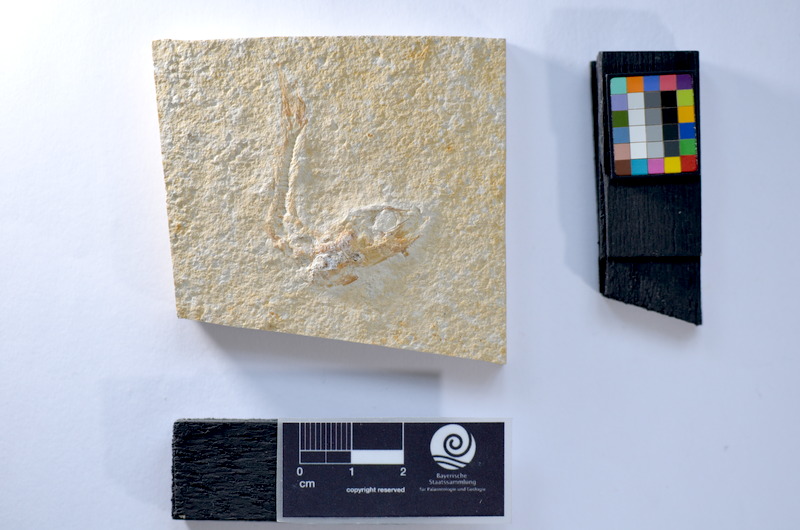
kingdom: Animalia
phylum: Chordata
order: Salmoniformes
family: Orthogonikleithridae
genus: Leptolepides
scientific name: Leptolepides
